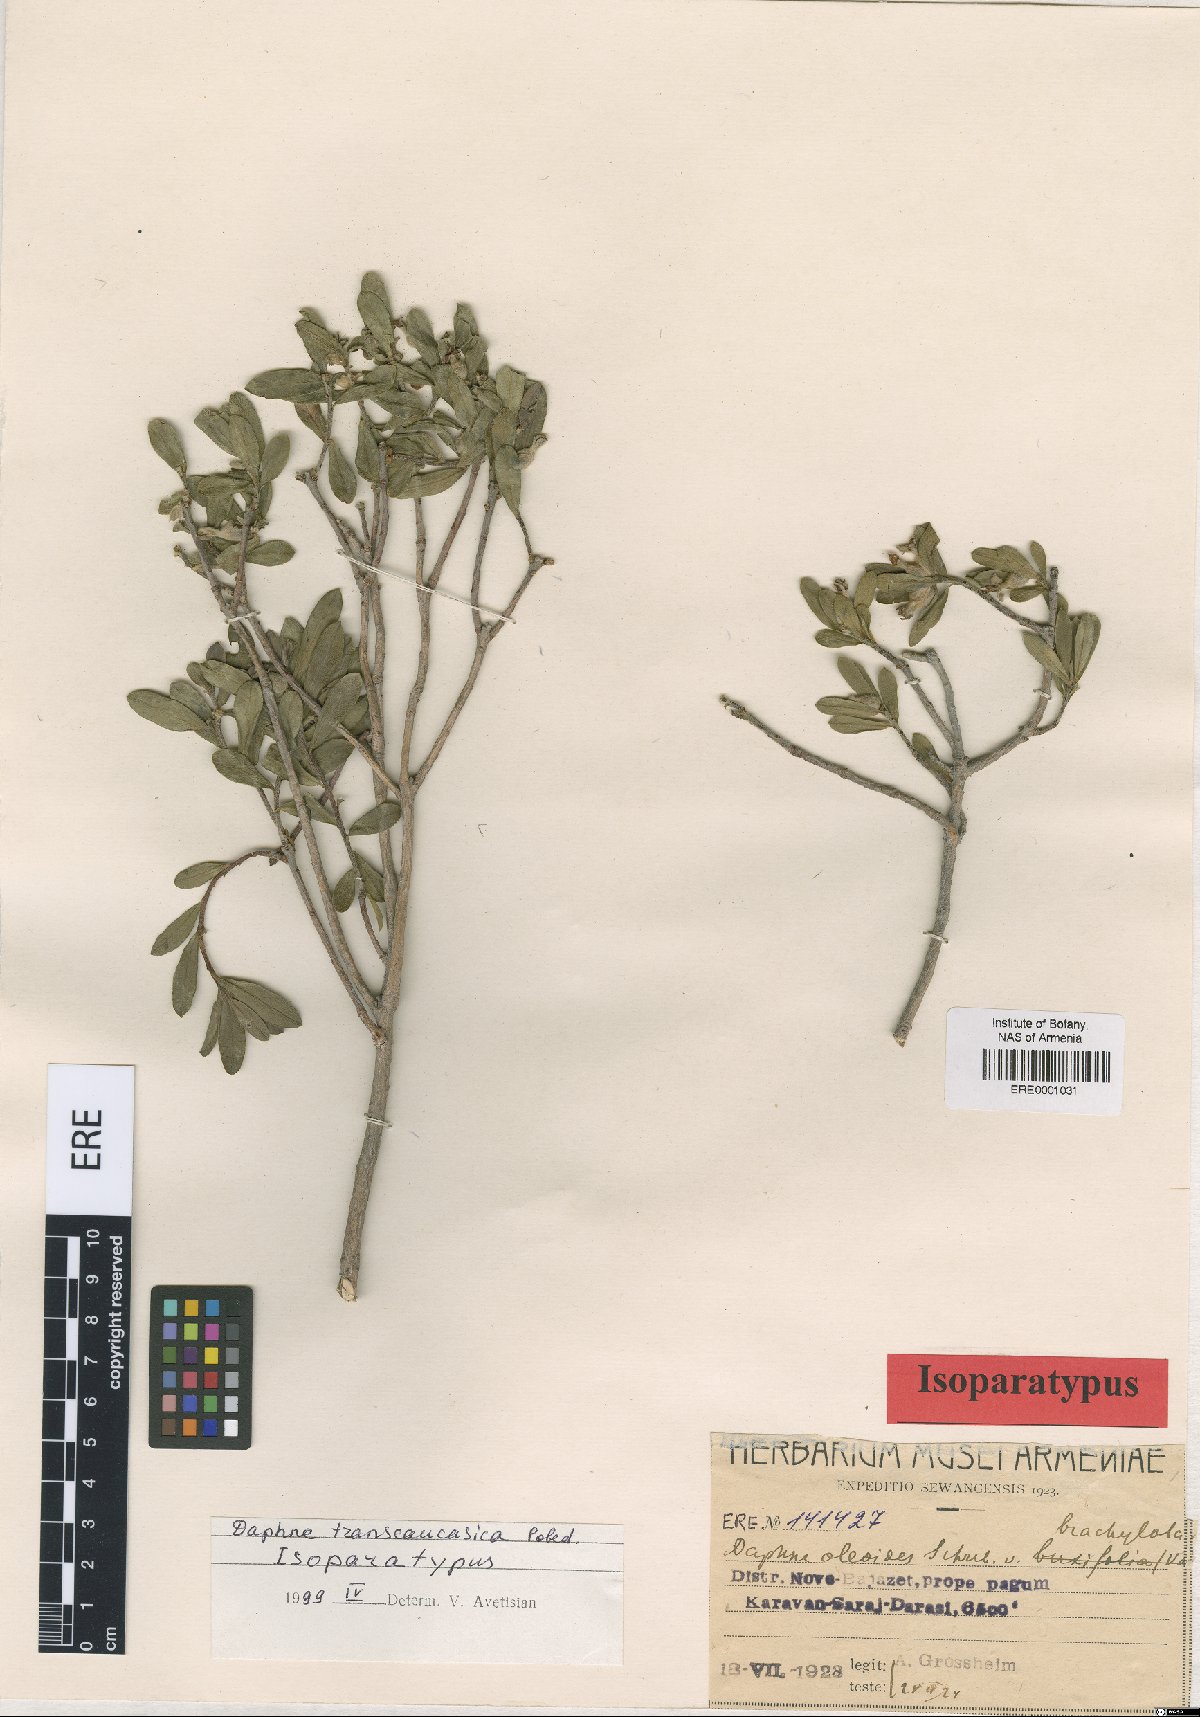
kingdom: Plantae
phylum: Tracheophyta
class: Magnoliopsida
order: Malvales
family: Thymelaeaceae
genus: Daphne
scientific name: Daphne kurdica
